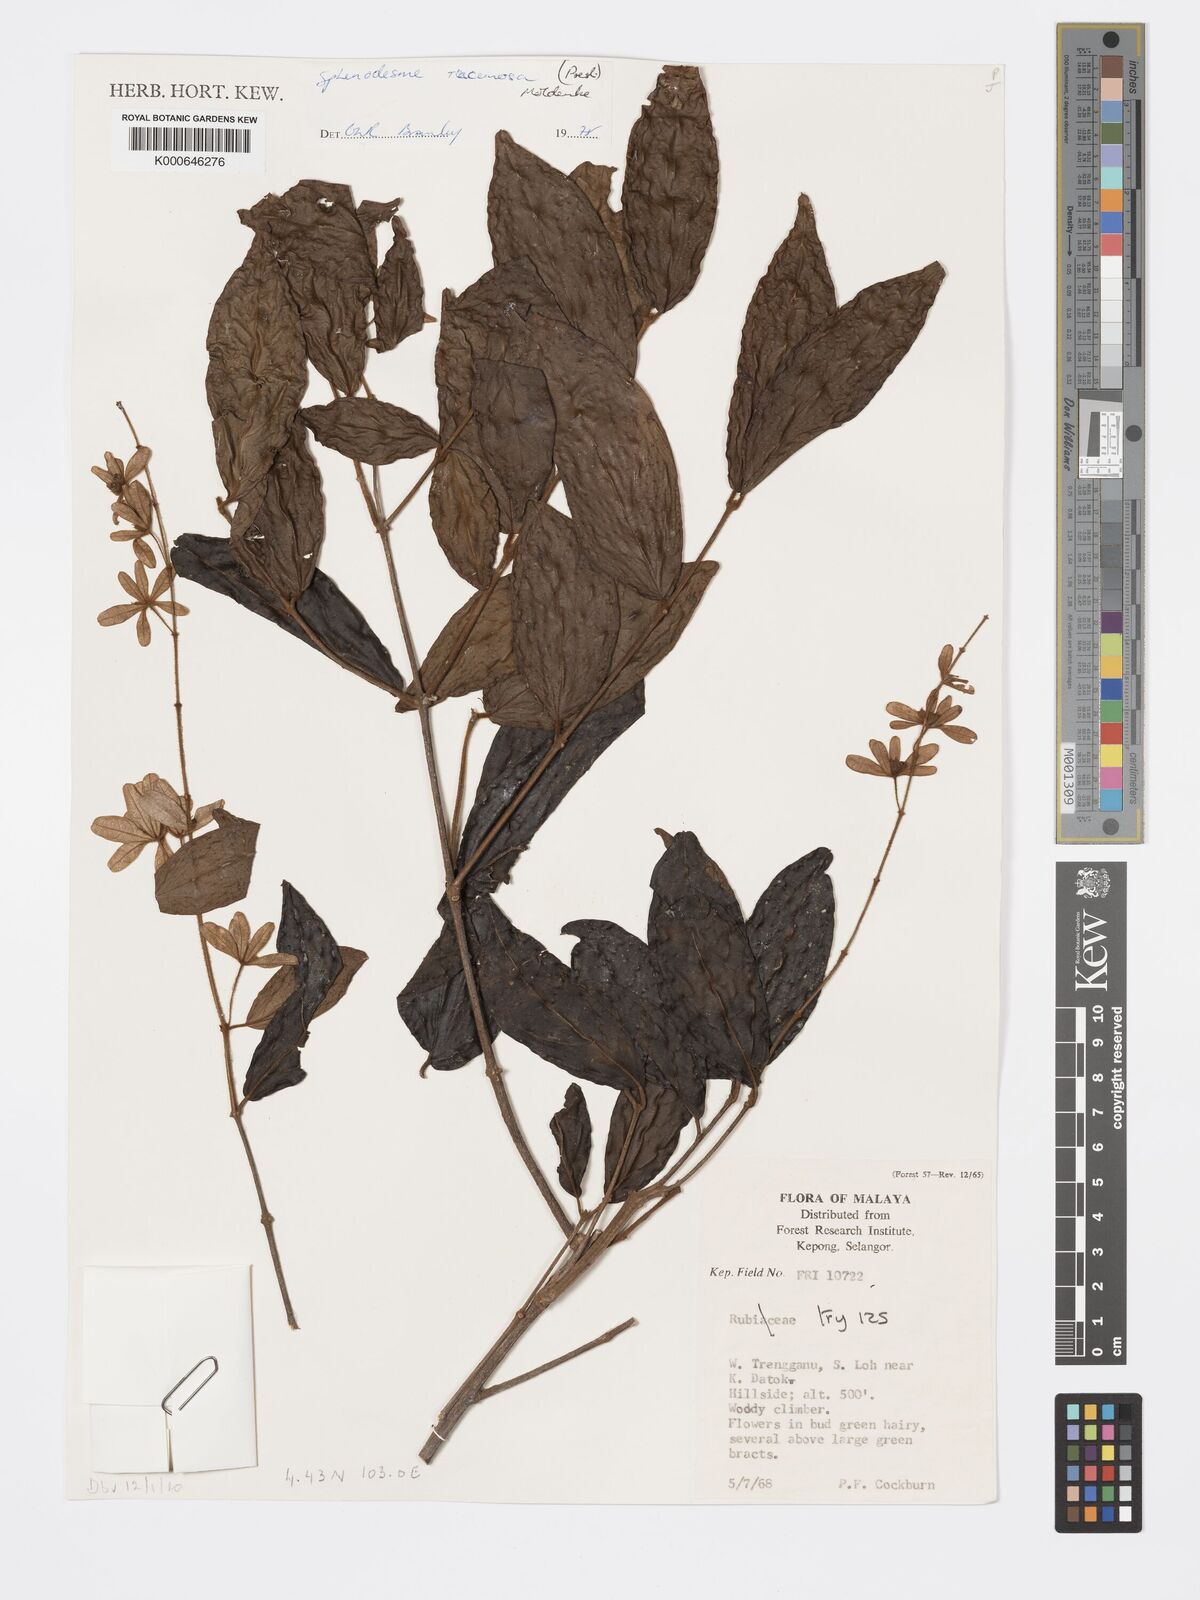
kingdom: Plantae
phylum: Tracheophyta
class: Magnoliopsida
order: Lamiales
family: Lamiaceae
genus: Sphenodesme
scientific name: Sphenodesme racemosa
